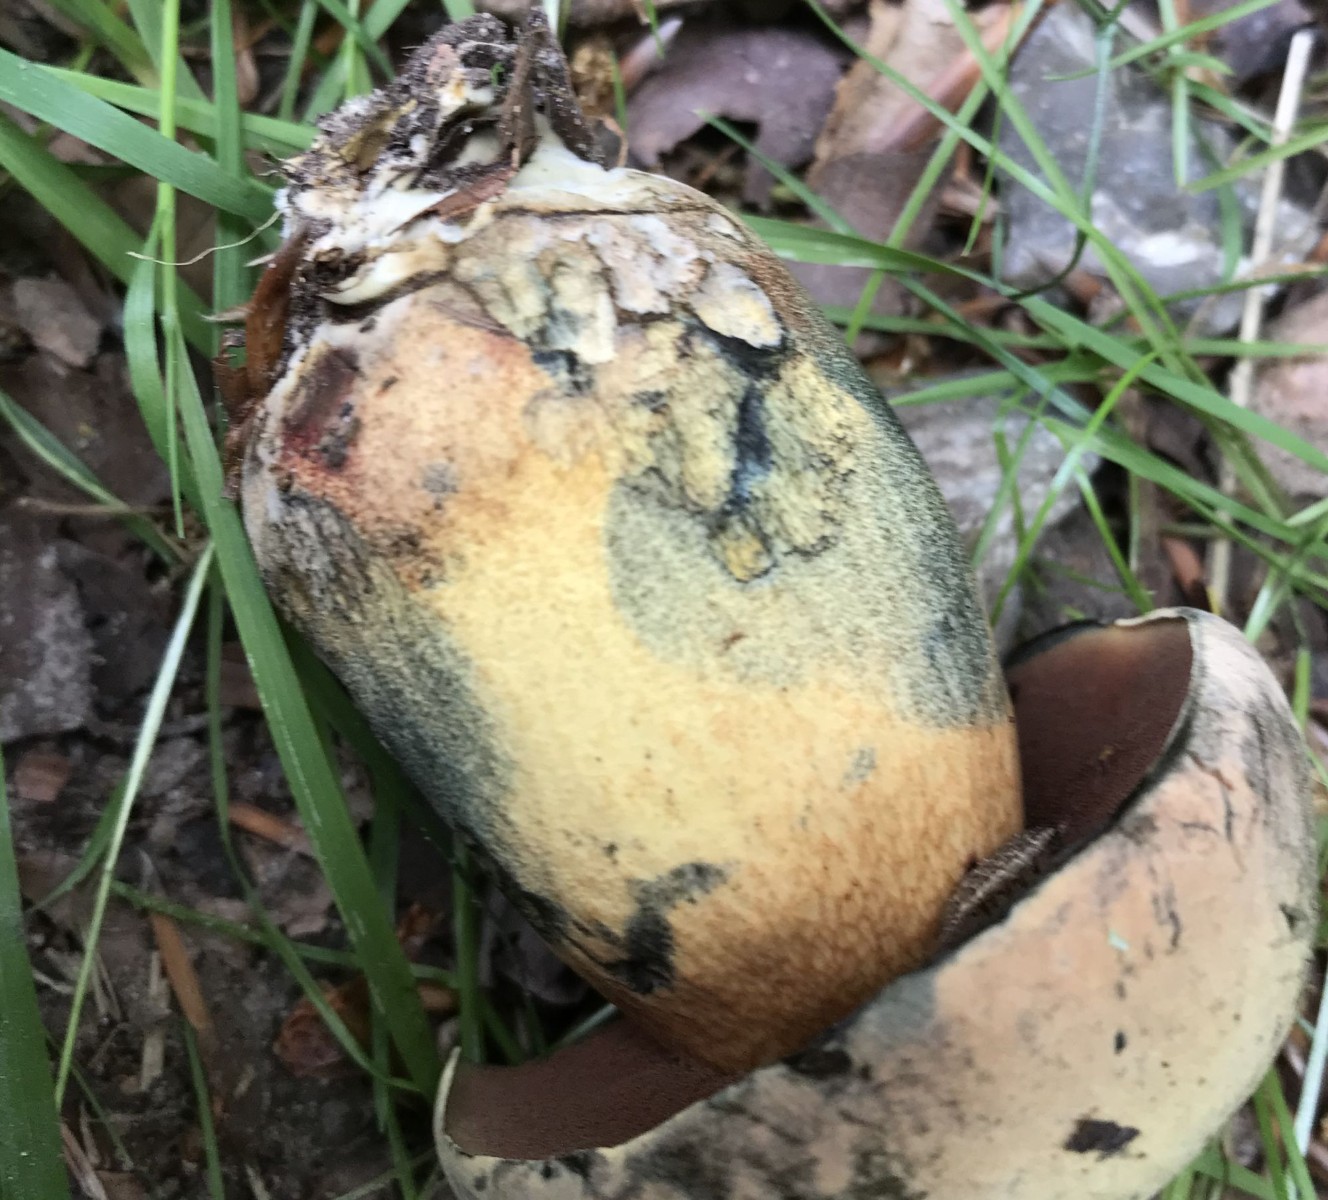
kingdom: Fungi
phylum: Basidiomycota
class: Agaricomycetes
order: Boletales
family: Boletaceae
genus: Suillellus
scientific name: Suillellus luridus
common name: netstokket indigorørhat
